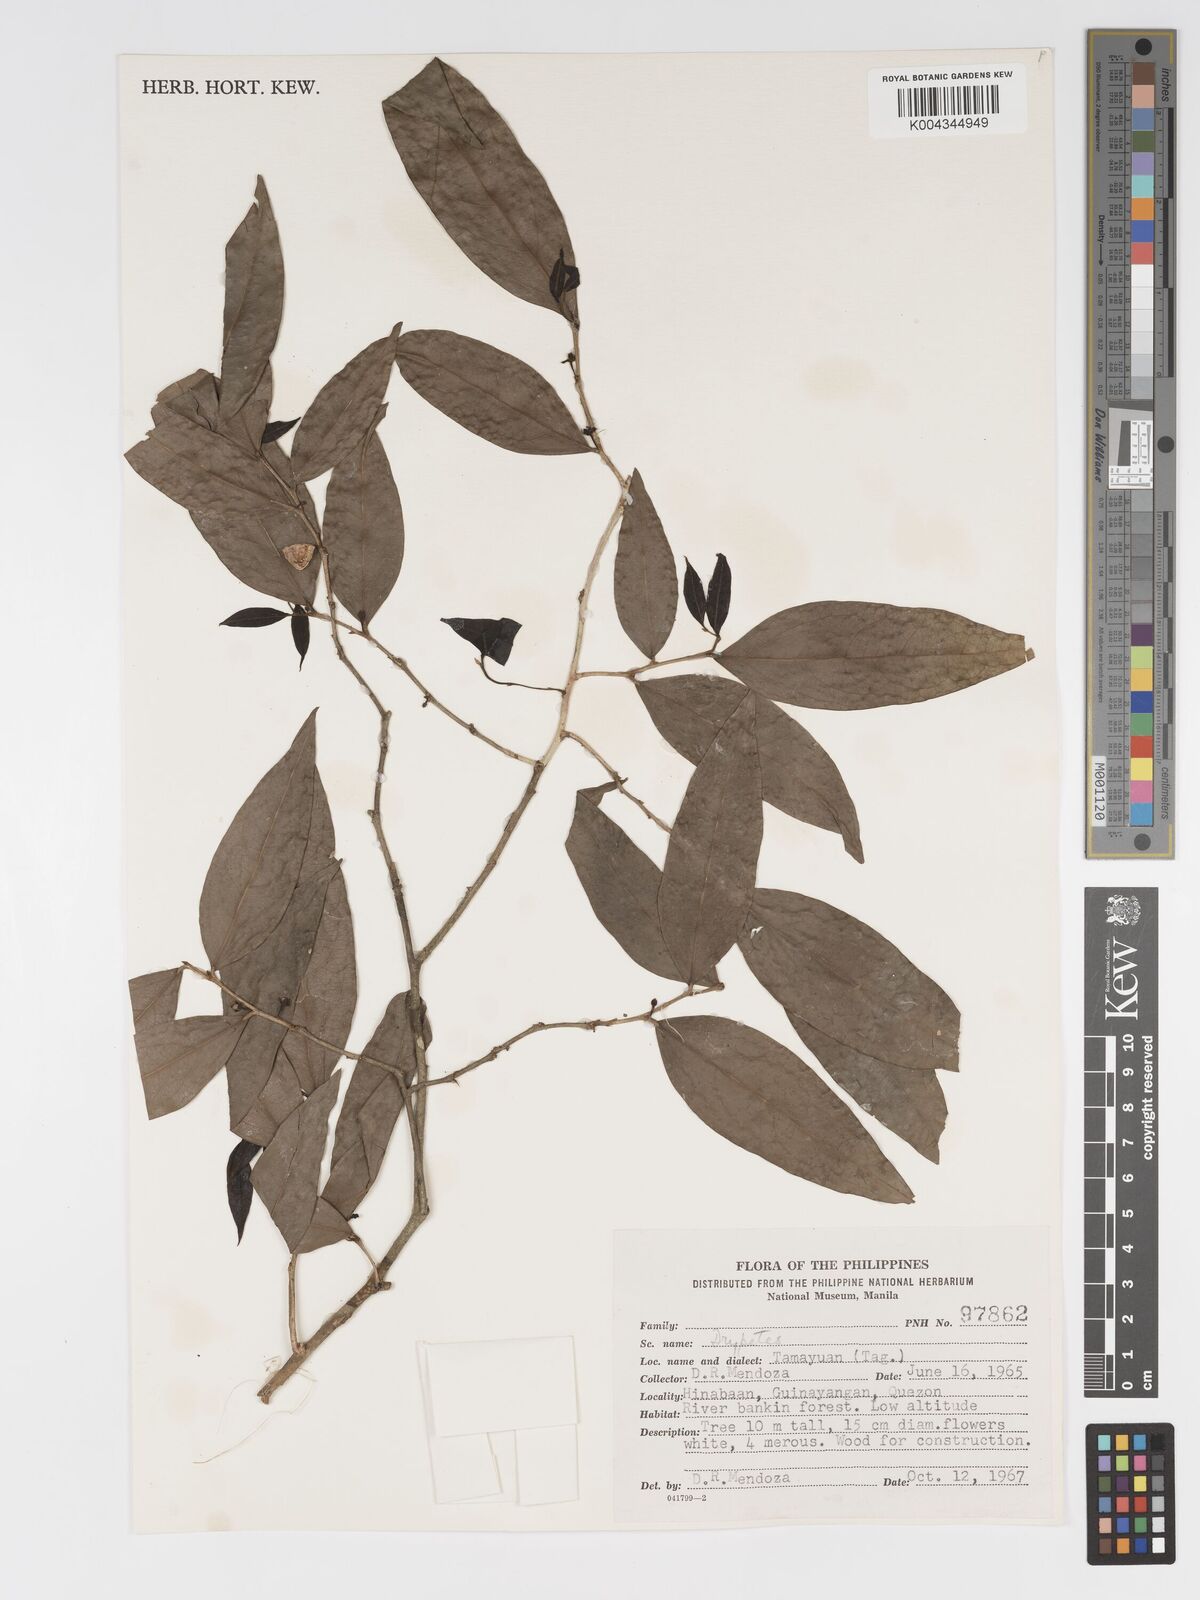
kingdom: Plantae
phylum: Tracheophyta
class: Magnoliopsida
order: Malpighiales
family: Putranjivaceae
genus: Drypetes
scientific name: Drypetes microphylla
